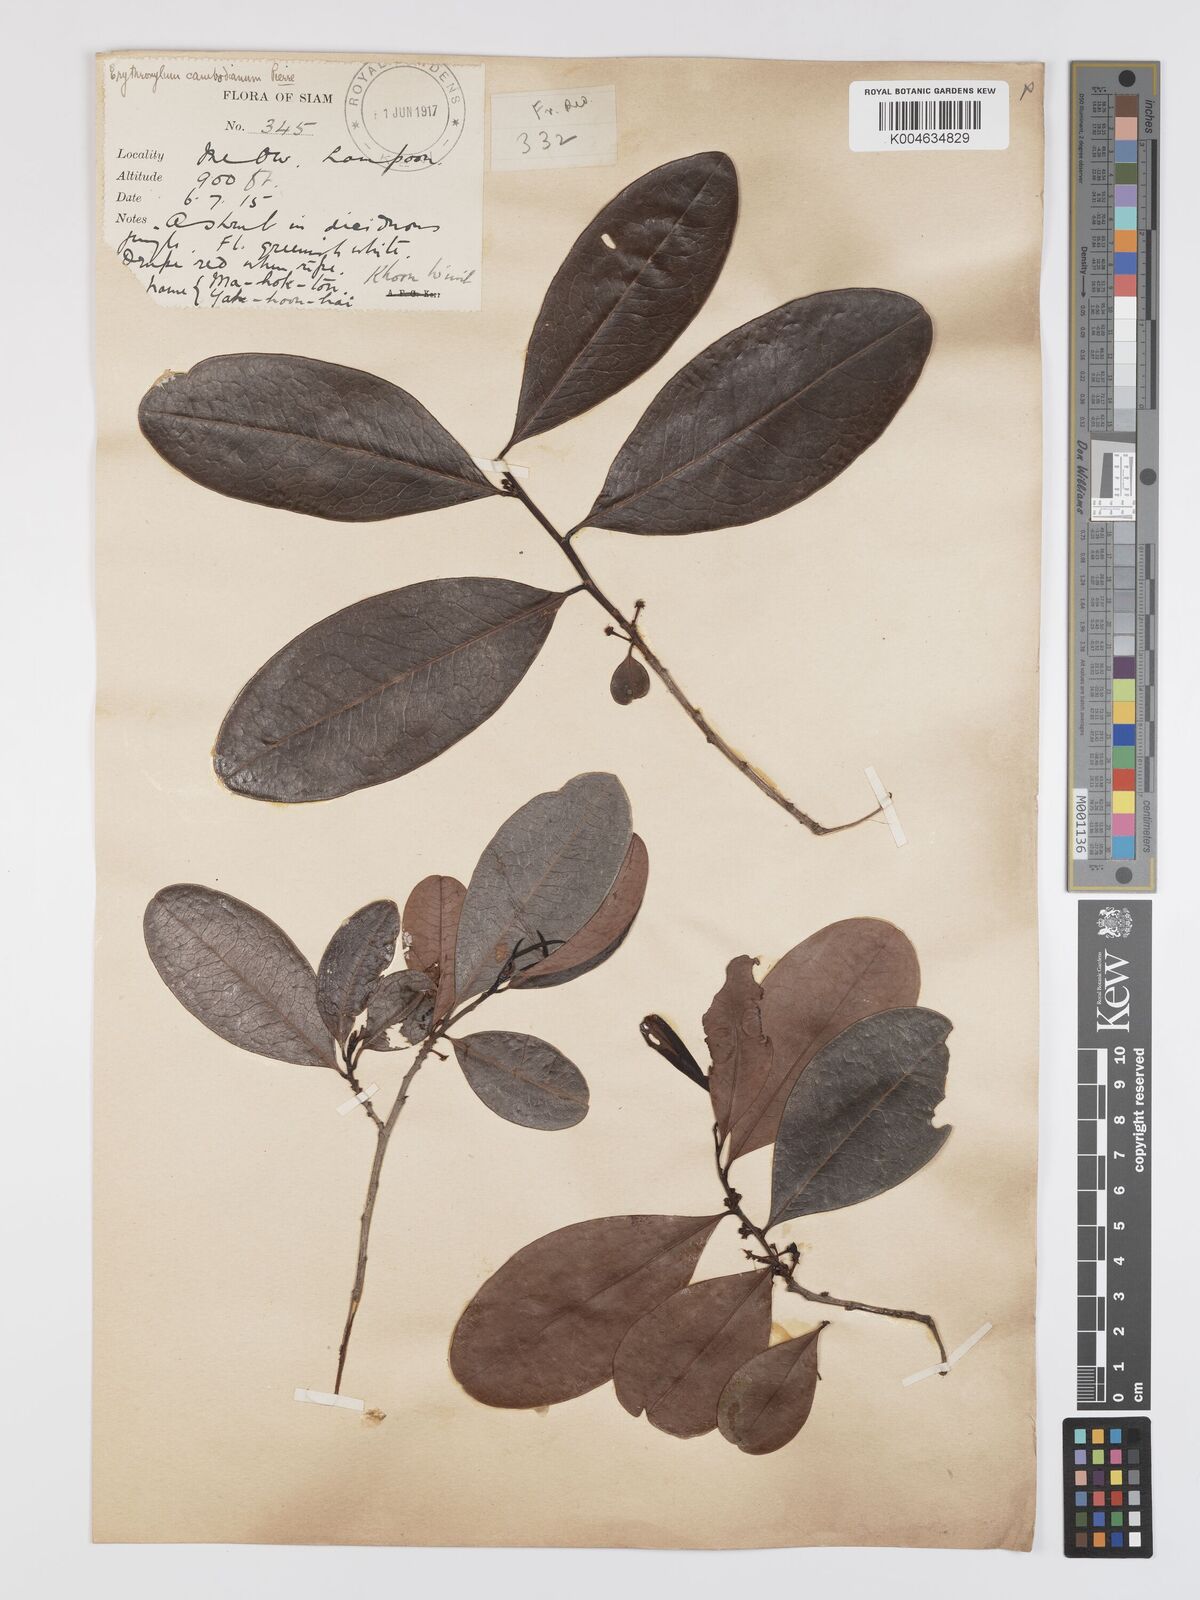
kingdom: Plantae
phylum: Tracheophyta
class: Magnoliopsida
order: Malpighiales
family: Erythroxylaceae
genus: Erythroxylum
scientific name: Erythroxylum cambodianum
